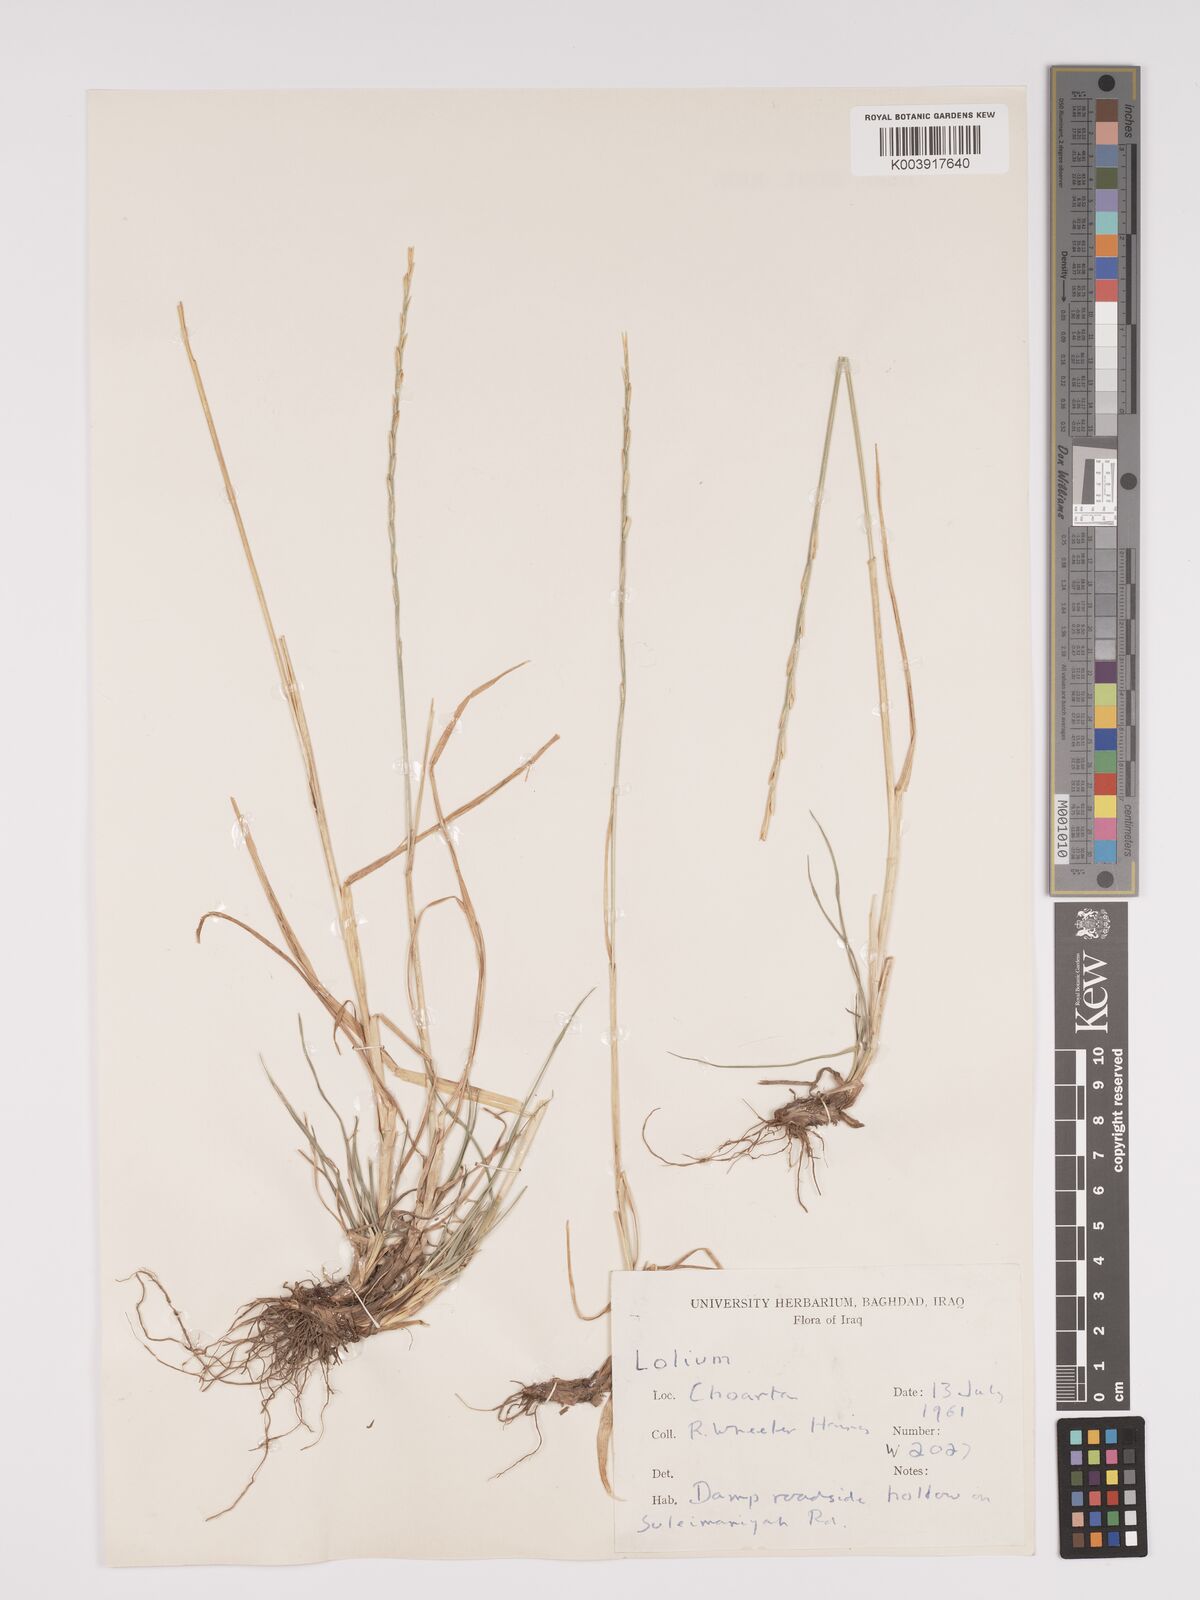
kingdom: Plantae
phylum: Tracheophyta
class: Liliopsida
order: Poales
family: Poaceae
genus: Lolium
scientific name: Lolium
